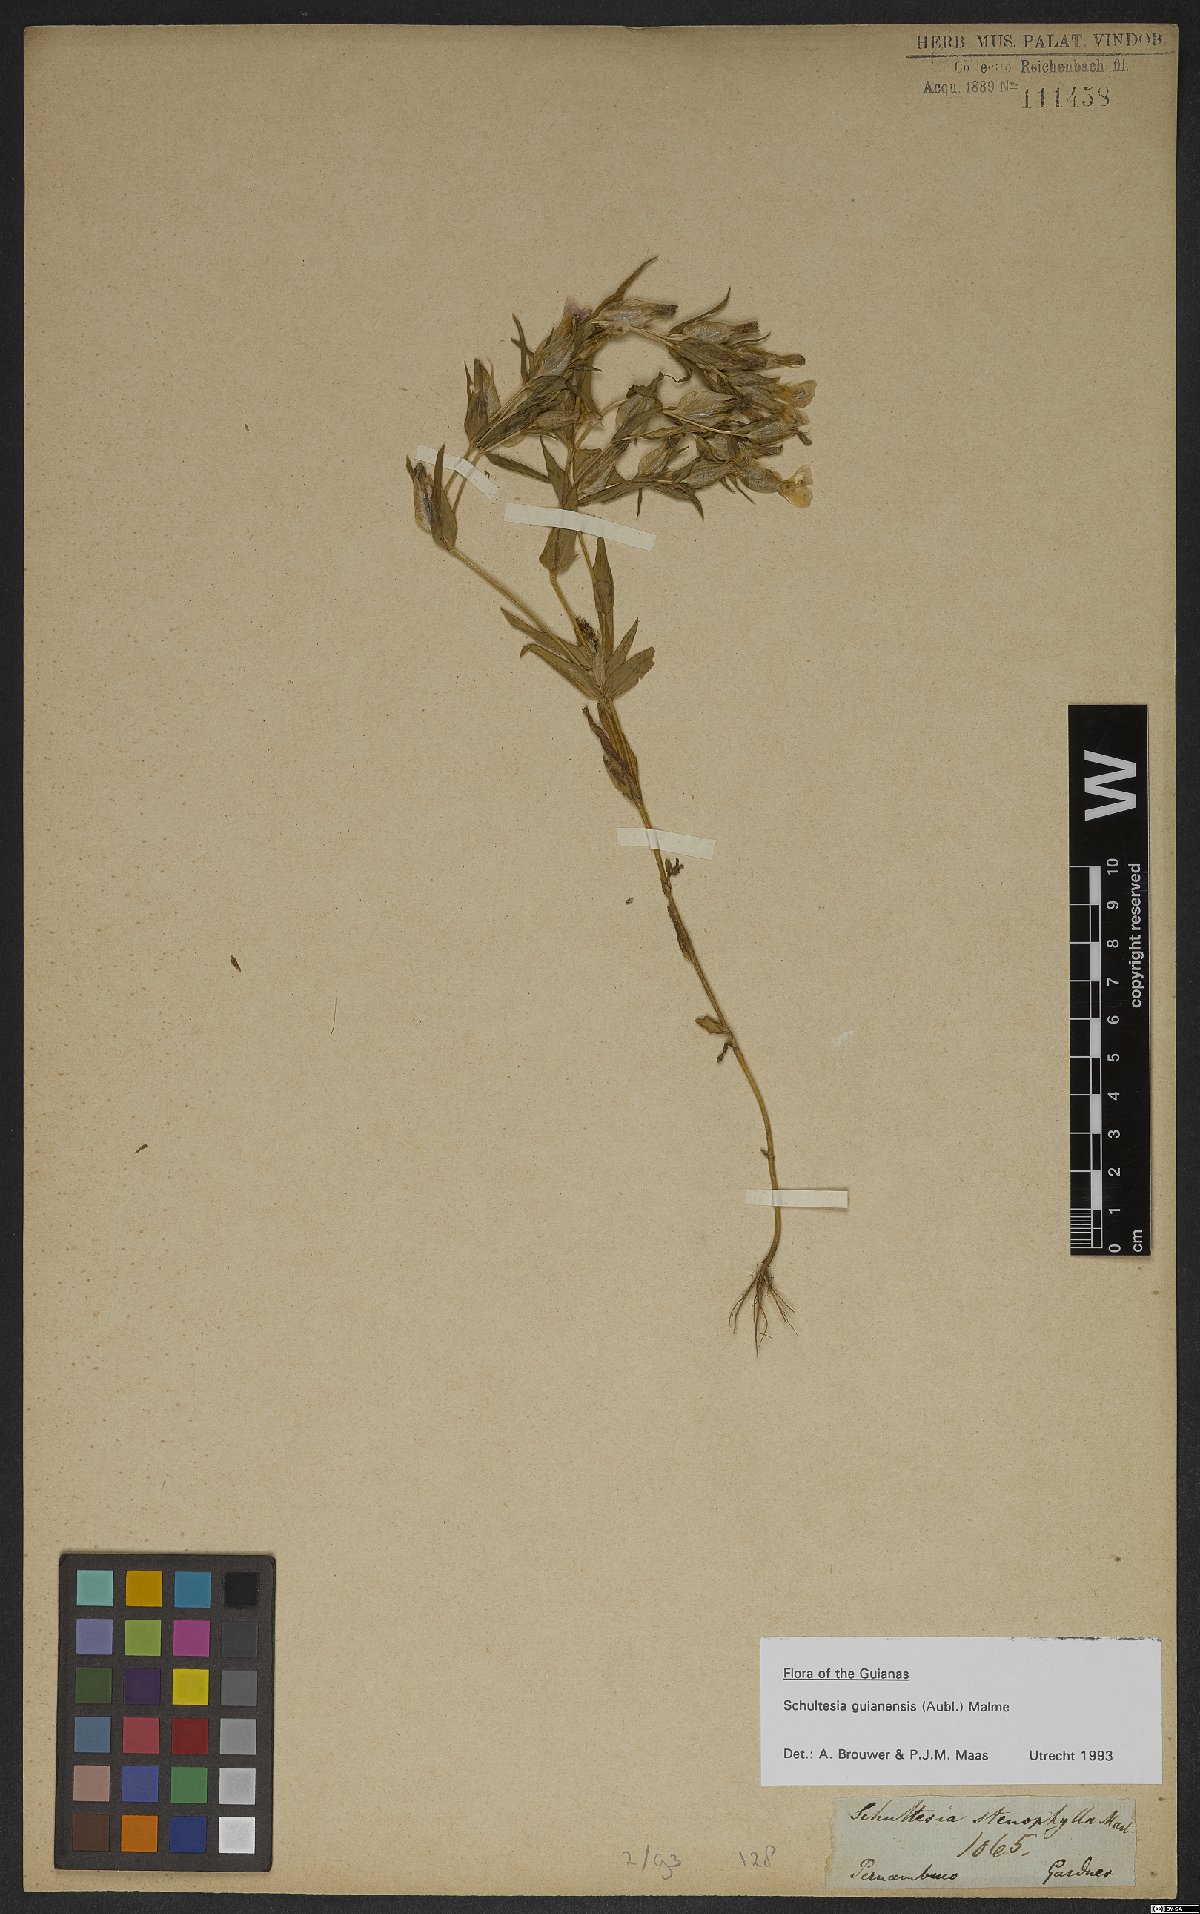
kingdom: Plantae
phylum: Tracheophyta
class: Magnoliopsida
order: Gentianales
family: Gentianaceae
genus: Schultesia
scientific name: Schultesia guianensis
